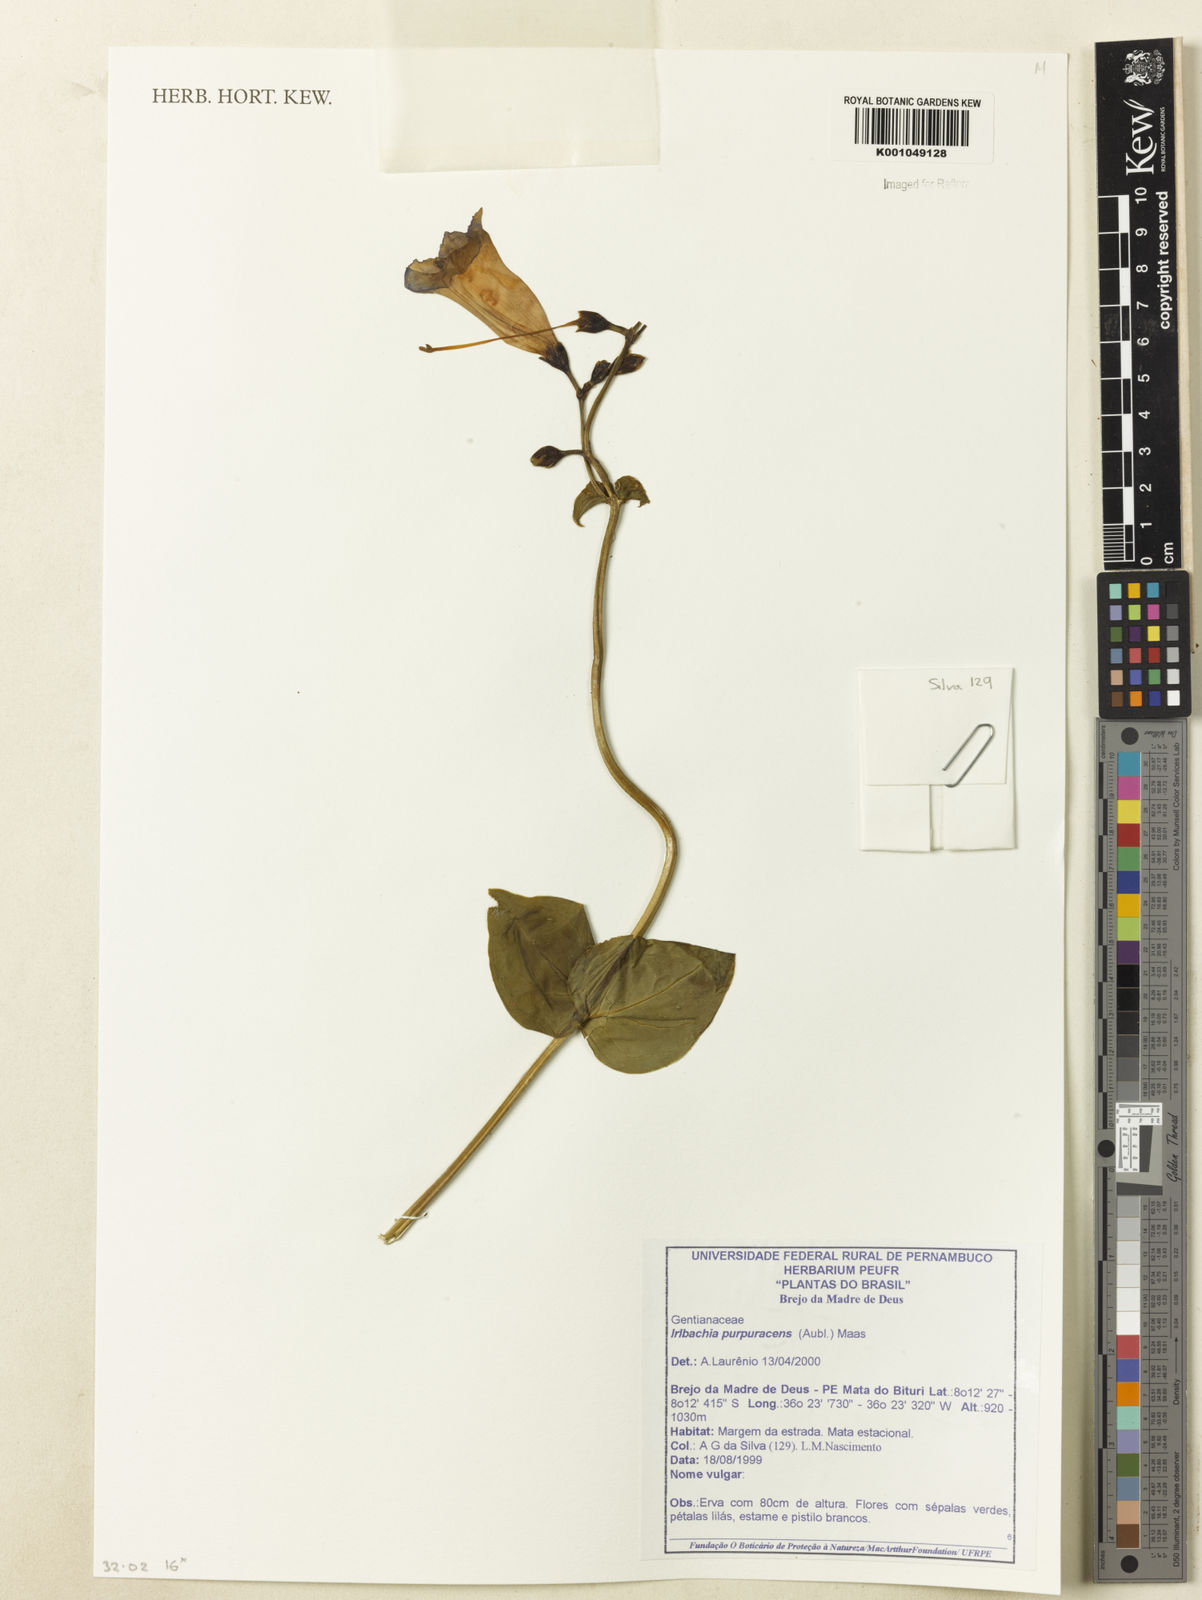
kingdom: Plantae
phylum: Tracheophyta
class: Magnoliopsida
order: Gentianales
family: Gentianaceae
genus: Chelonanthus
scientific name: Chelonanthus purpurascens
